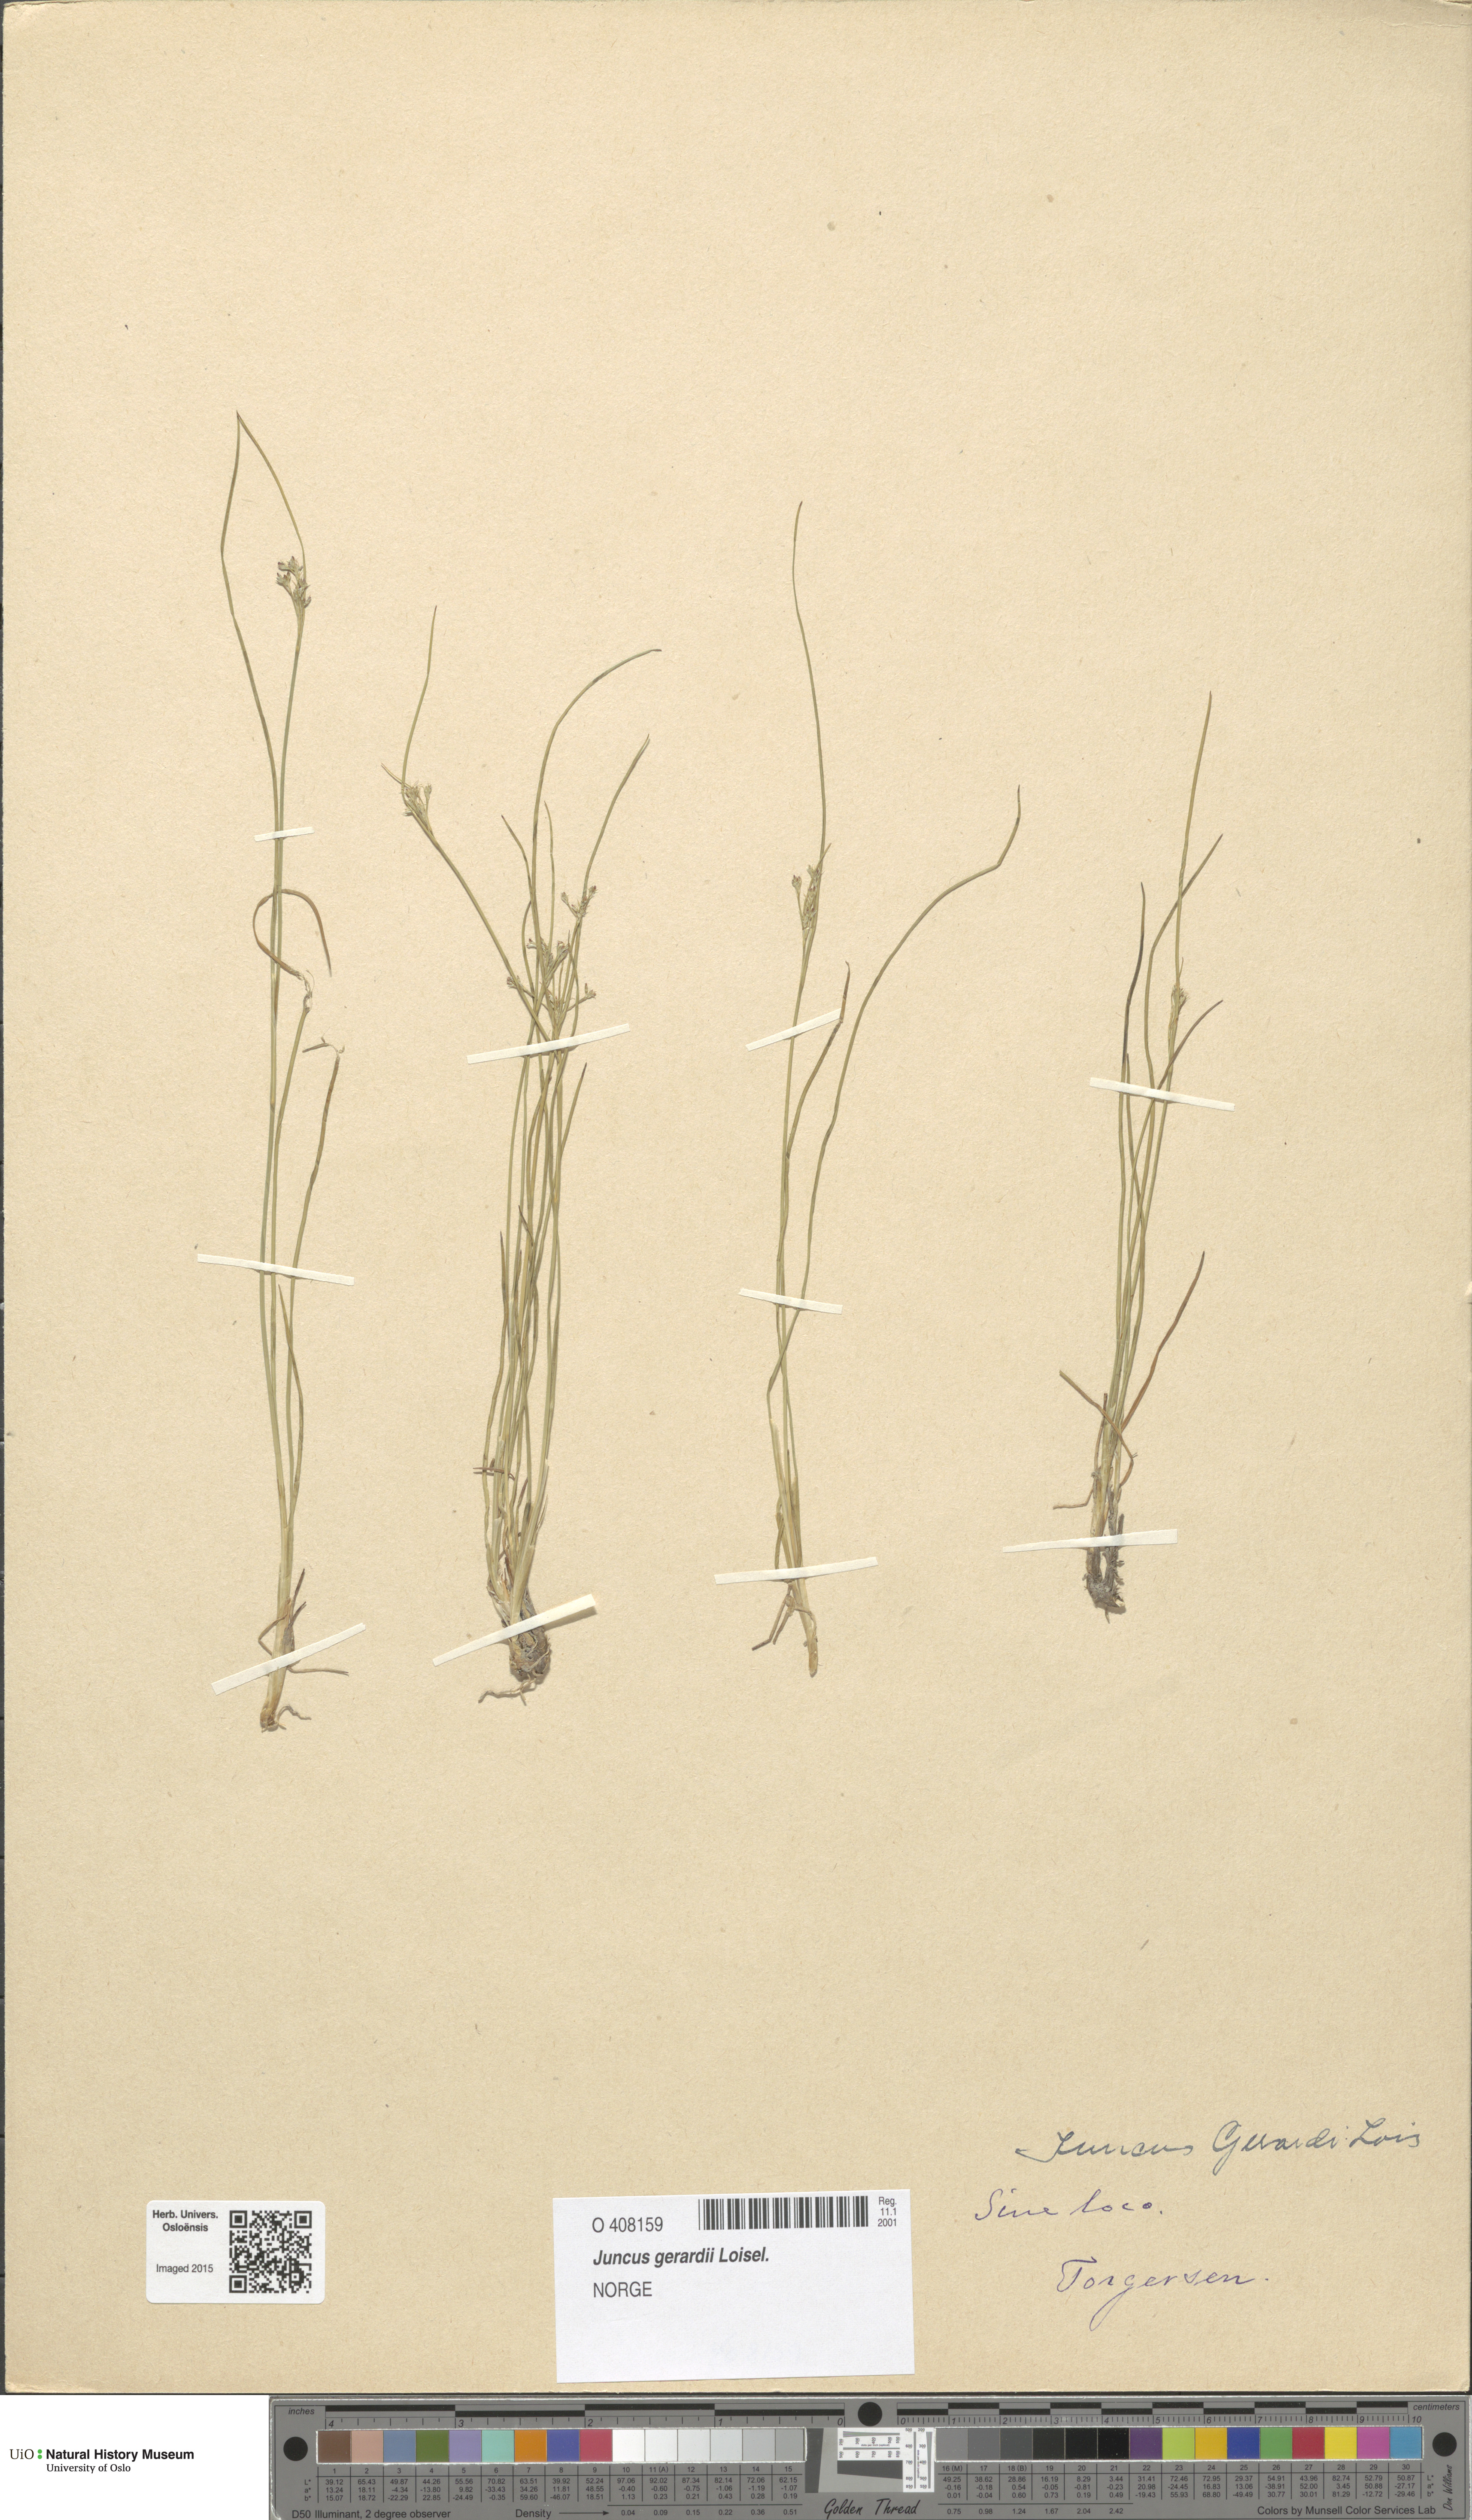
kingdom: Plantae
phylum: Tracheophyta
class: Liliopsida
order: Poales
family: Juncaceae
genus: Juncus
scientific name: Juncus compressus
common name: Round-fruited rush
